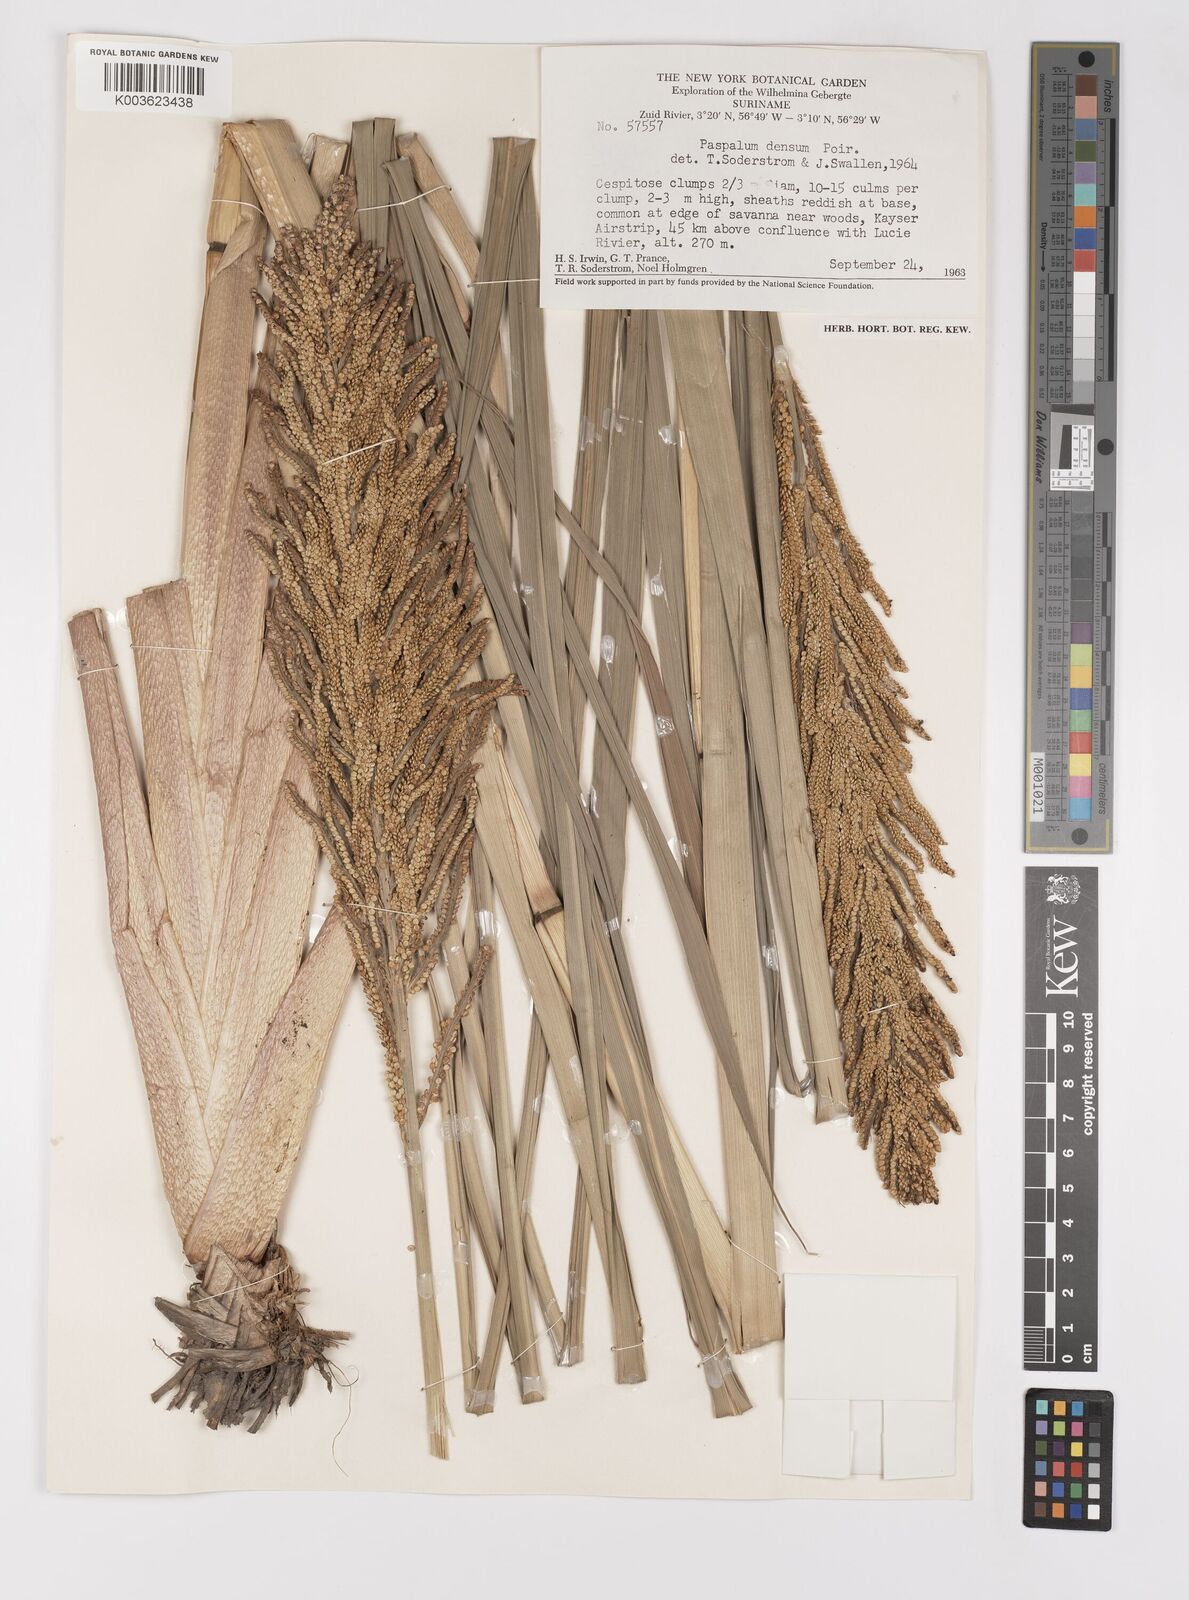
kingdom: Plantae
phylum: Tracheophyta
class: Liliopsida
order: Poales
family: Poaceae
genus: Paspalum
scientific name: Paspalum densum
